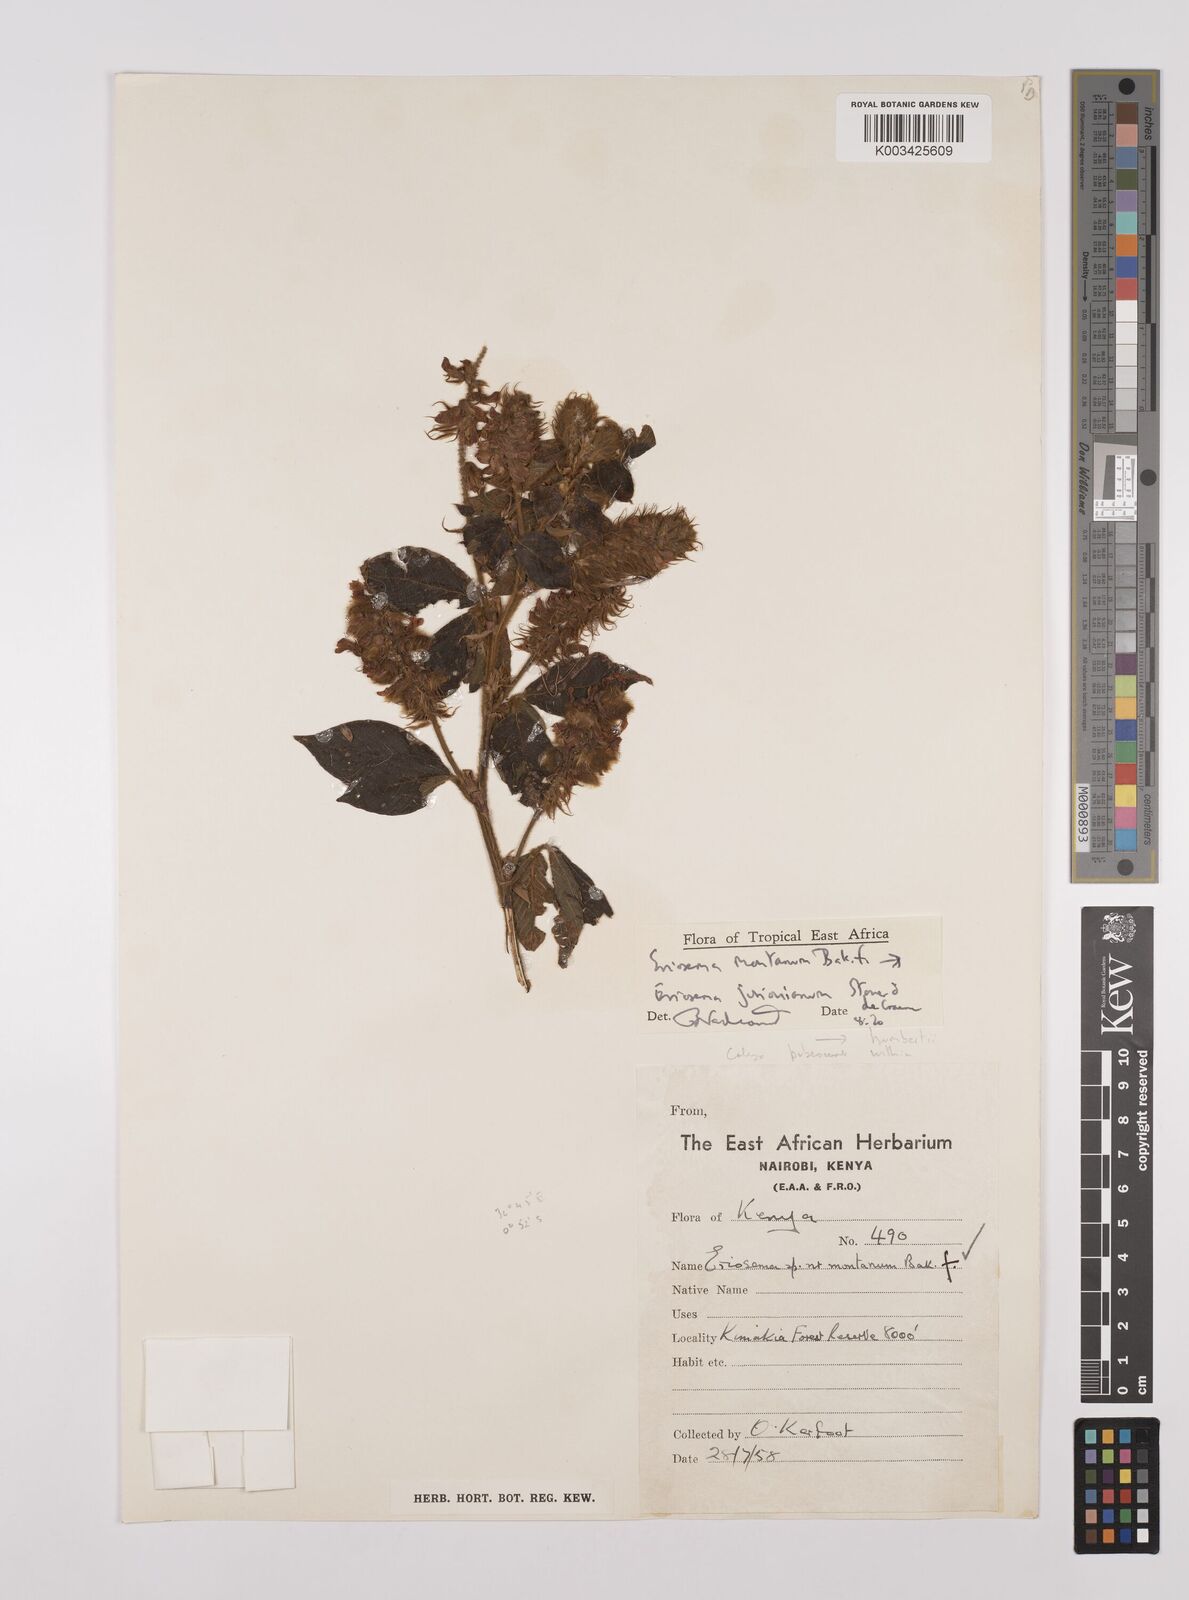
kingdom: Plantae
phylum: Tracheophyta
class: Magnoliopsida
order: Fabales
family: Fabaceae
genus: Eriosema
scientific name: Eriosema jurionianum
